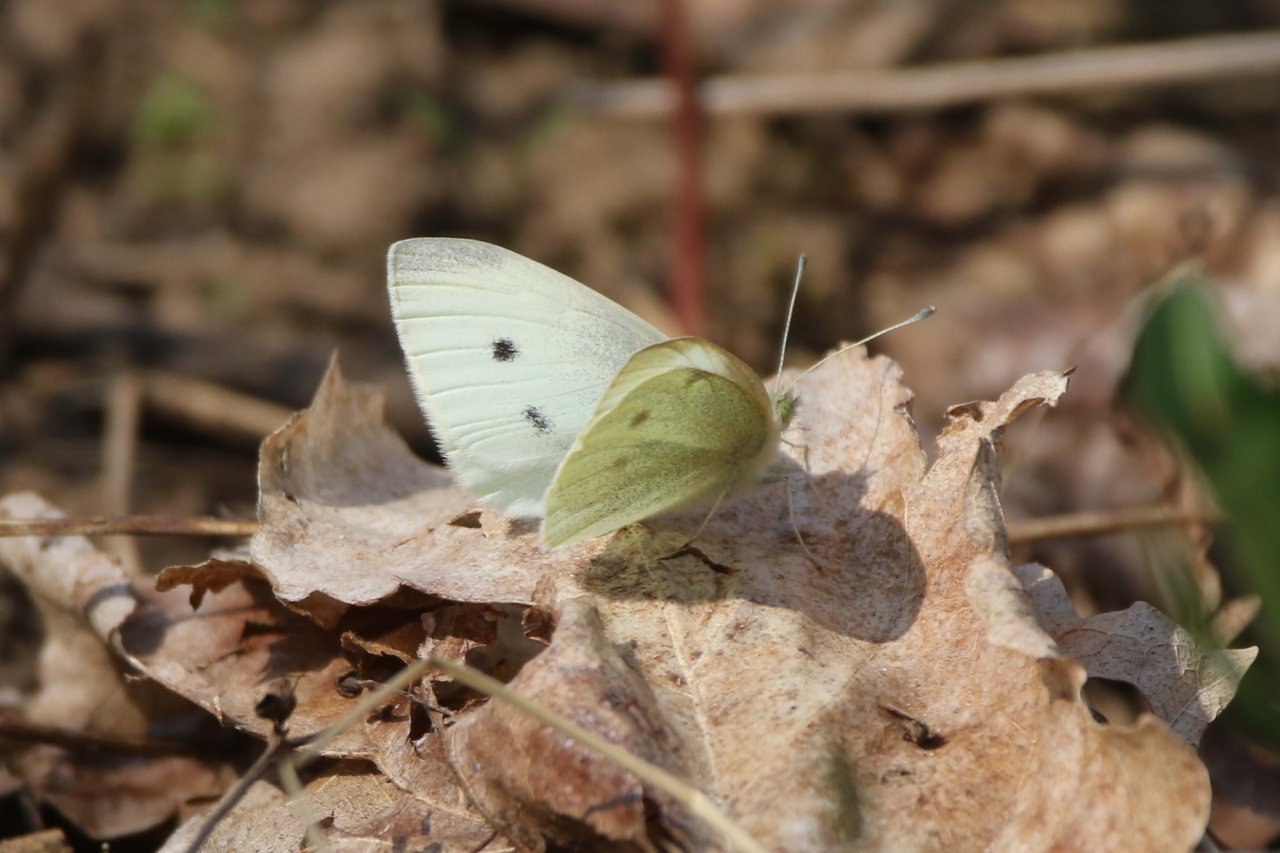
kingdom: Animalia
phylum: Arthropoda
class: Insecta
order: Lepidoptera
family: Pieridae
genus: Pieris
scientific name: Pieris rapae
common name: Cabbage White
